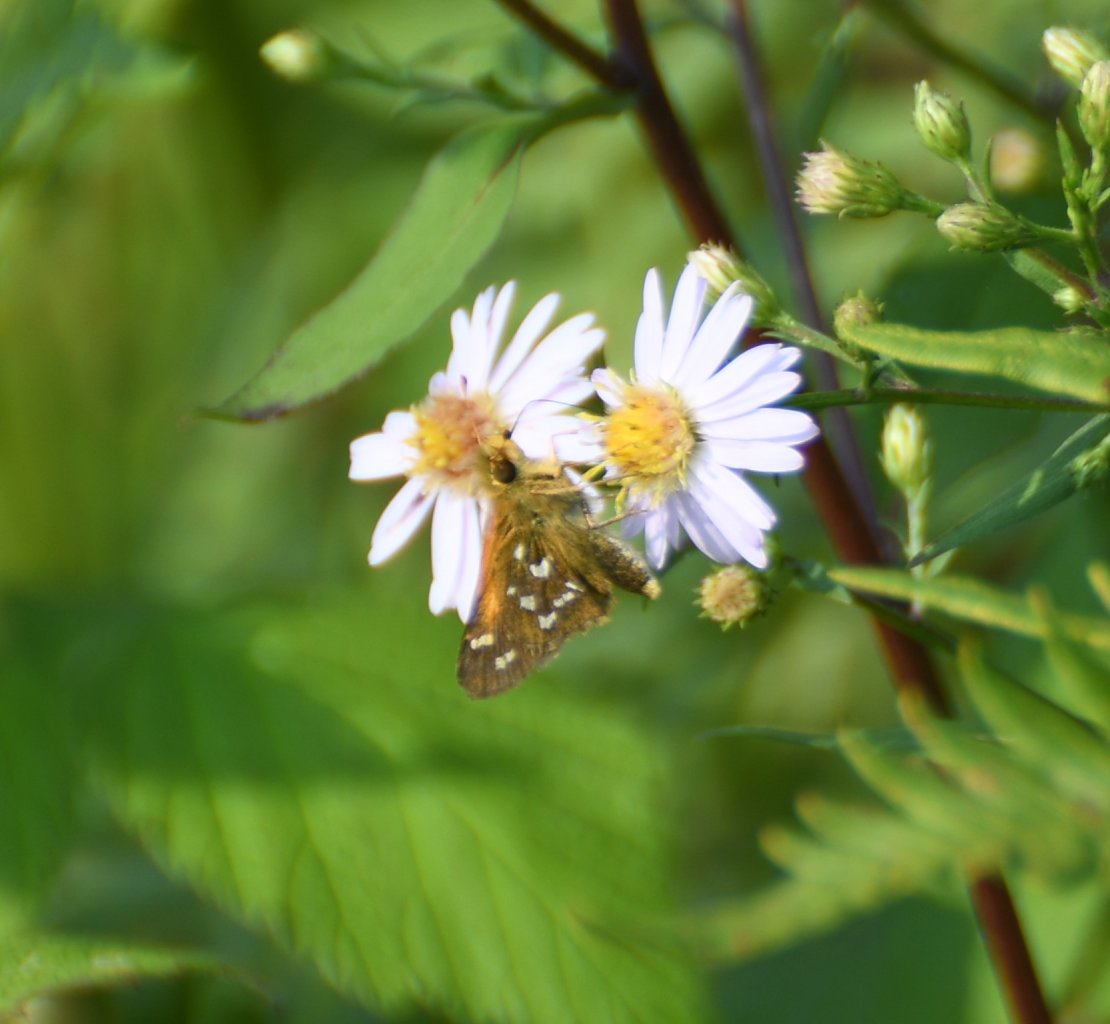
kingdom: Animalia
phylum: Arthropoda
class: Insecta
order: Lepidoptera
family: Hesperiidae
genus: Hesperia
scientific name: Hesperia comma
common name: Common Branded Skipper
